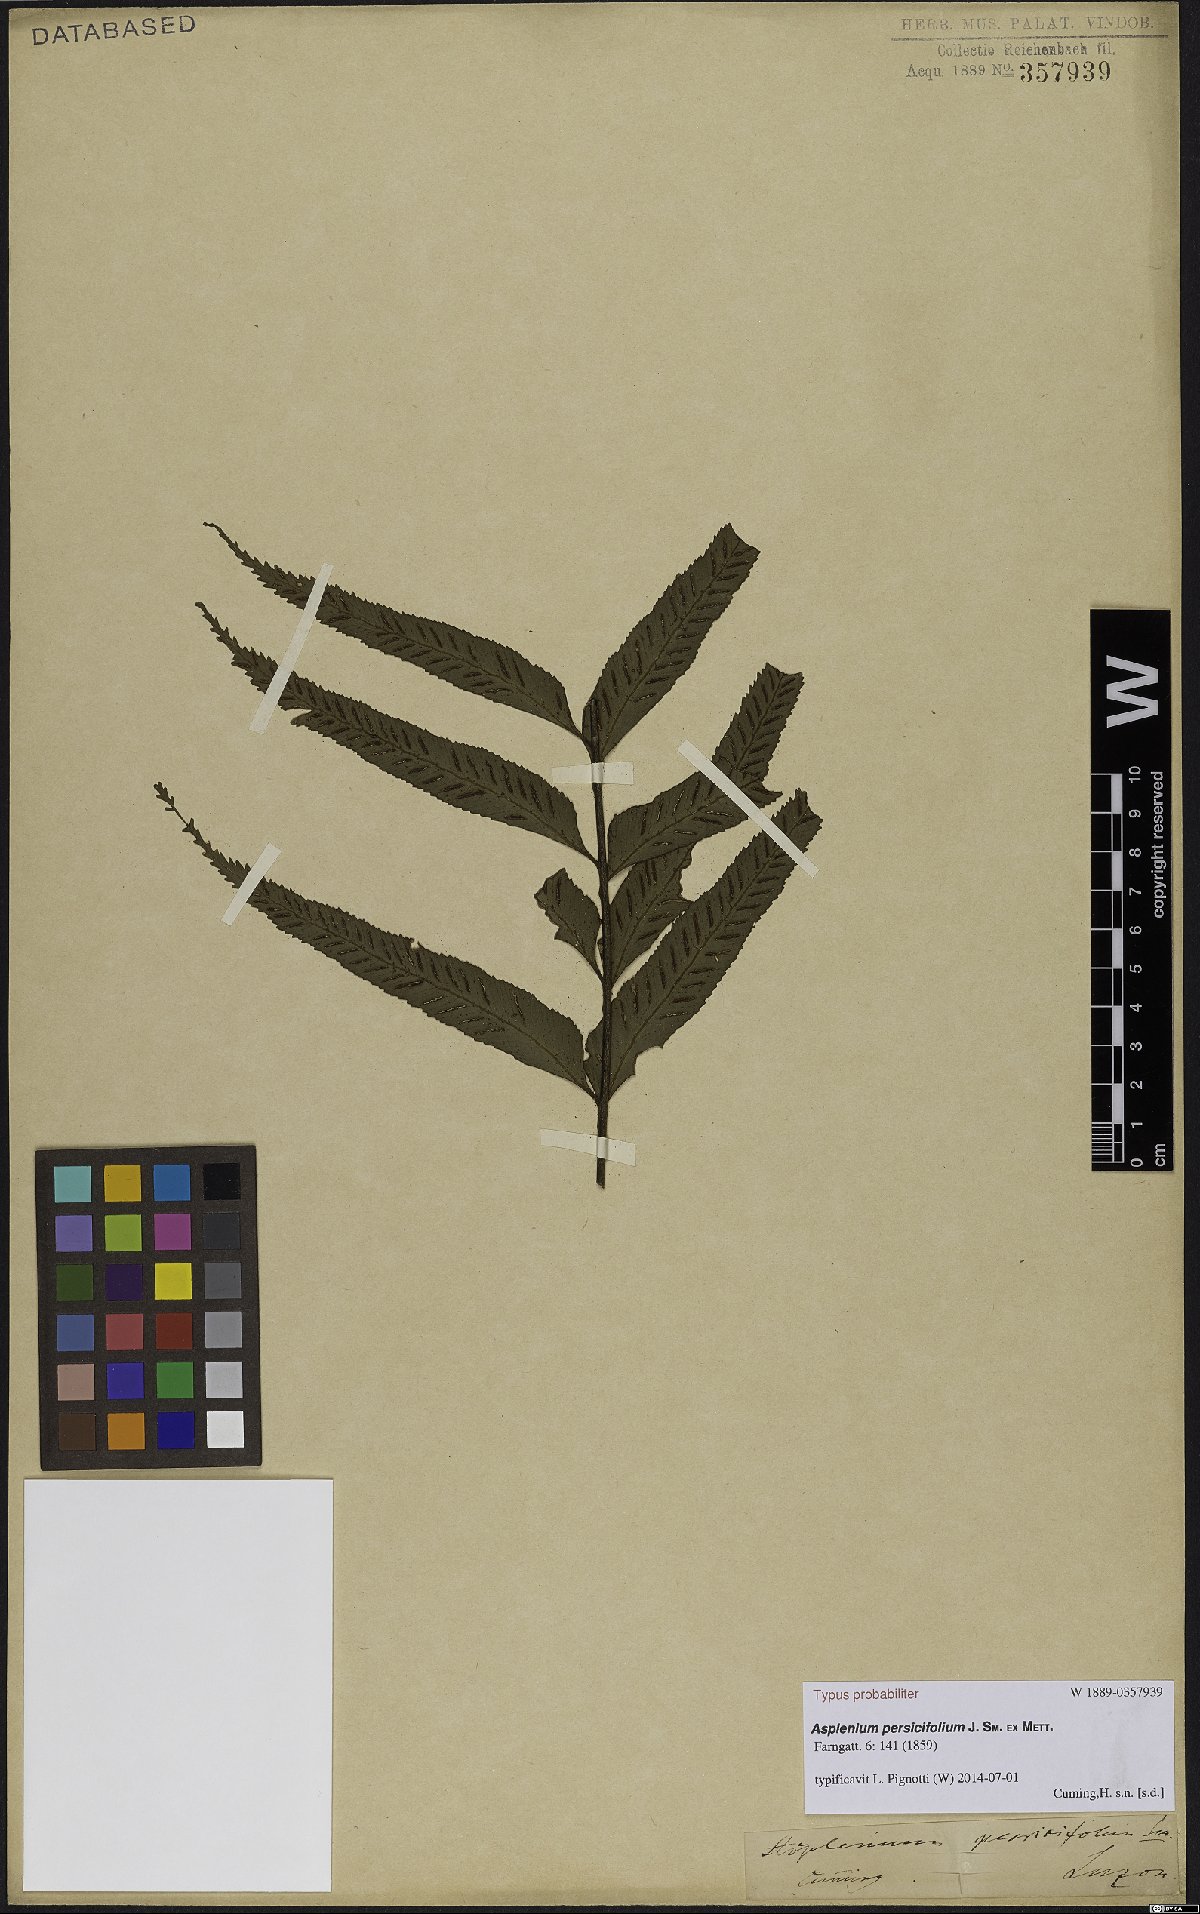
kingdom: Plantae
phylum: Tracheophyta
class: Polypodiopsida
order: Polypodiales
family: Aspleniaceae
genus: Asplenium
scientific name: Asplenium persicifolium
